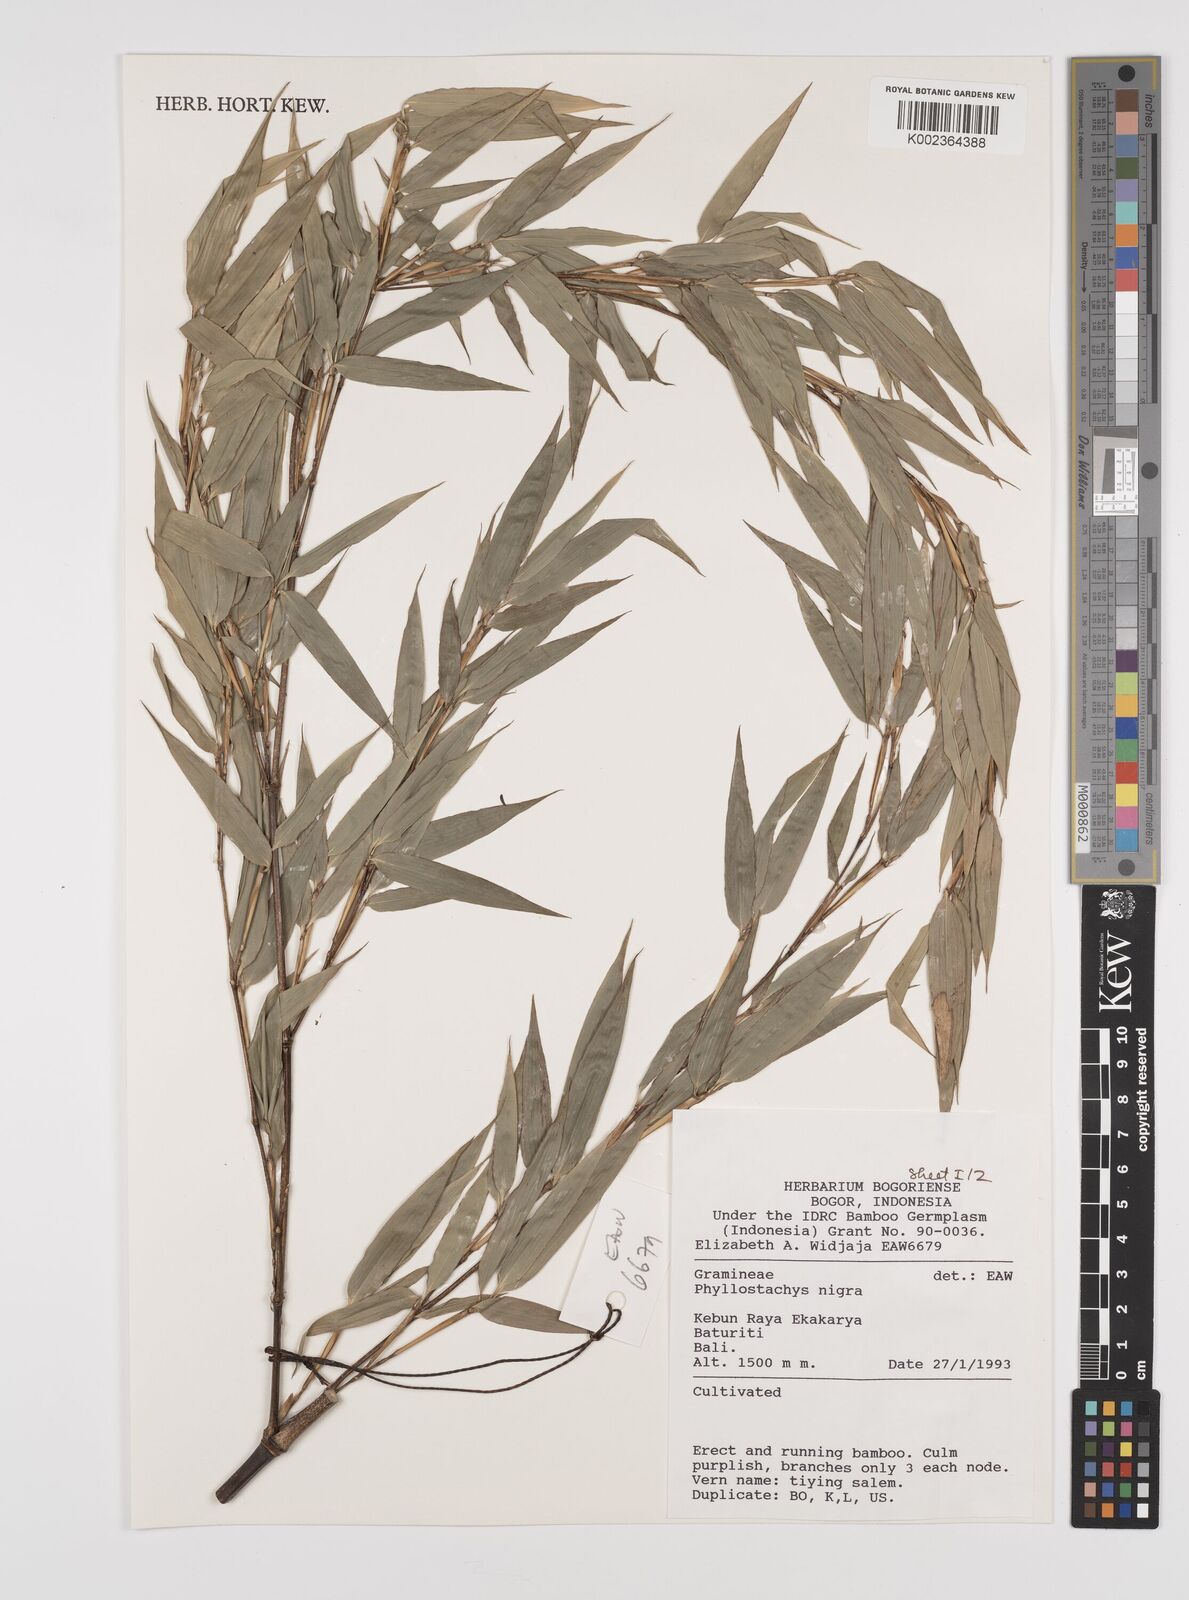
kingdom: Plantae
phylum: Tracheophyta
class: Liliopsida
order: Poales
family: Poaceae
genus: Phyllostachys
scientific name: Phyllostachys
